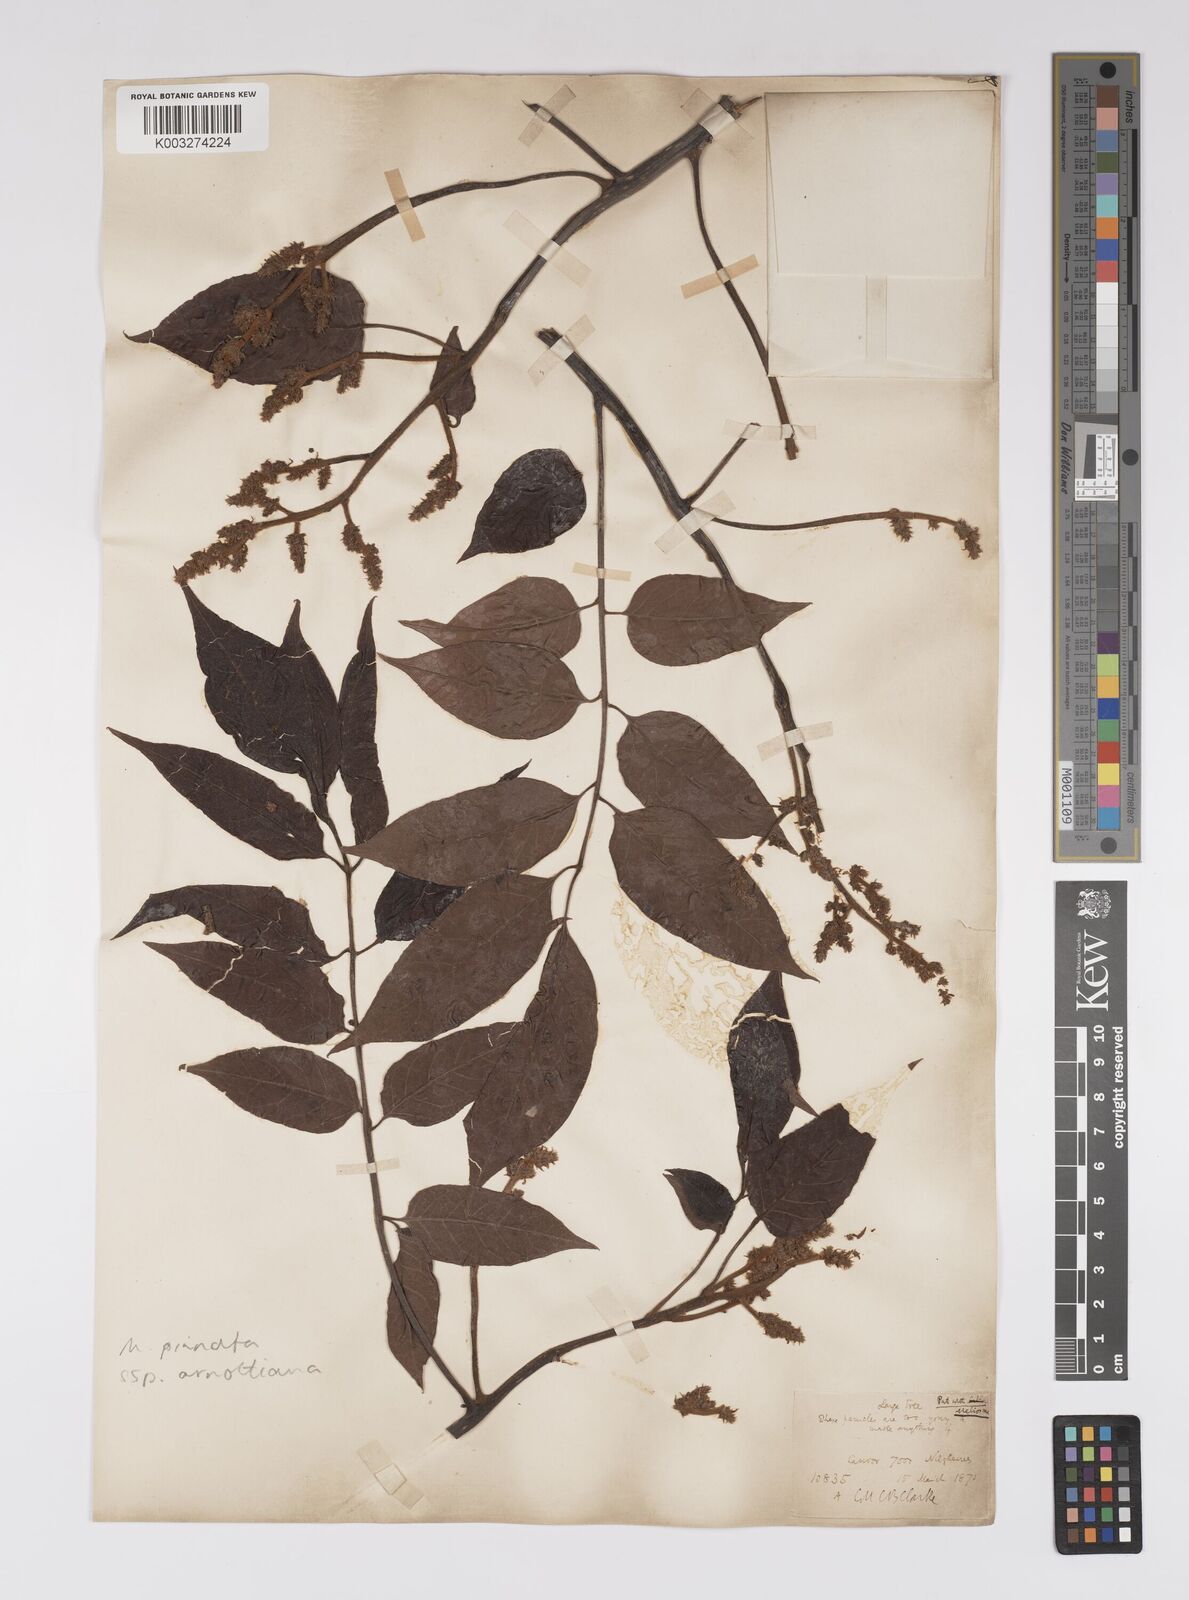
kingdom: Plantae
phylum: Tracheophyta
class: Magnoliopsida
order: Proteales
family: Sabiaceae
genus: Meliosma
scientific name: Meliosma rhoifolia
